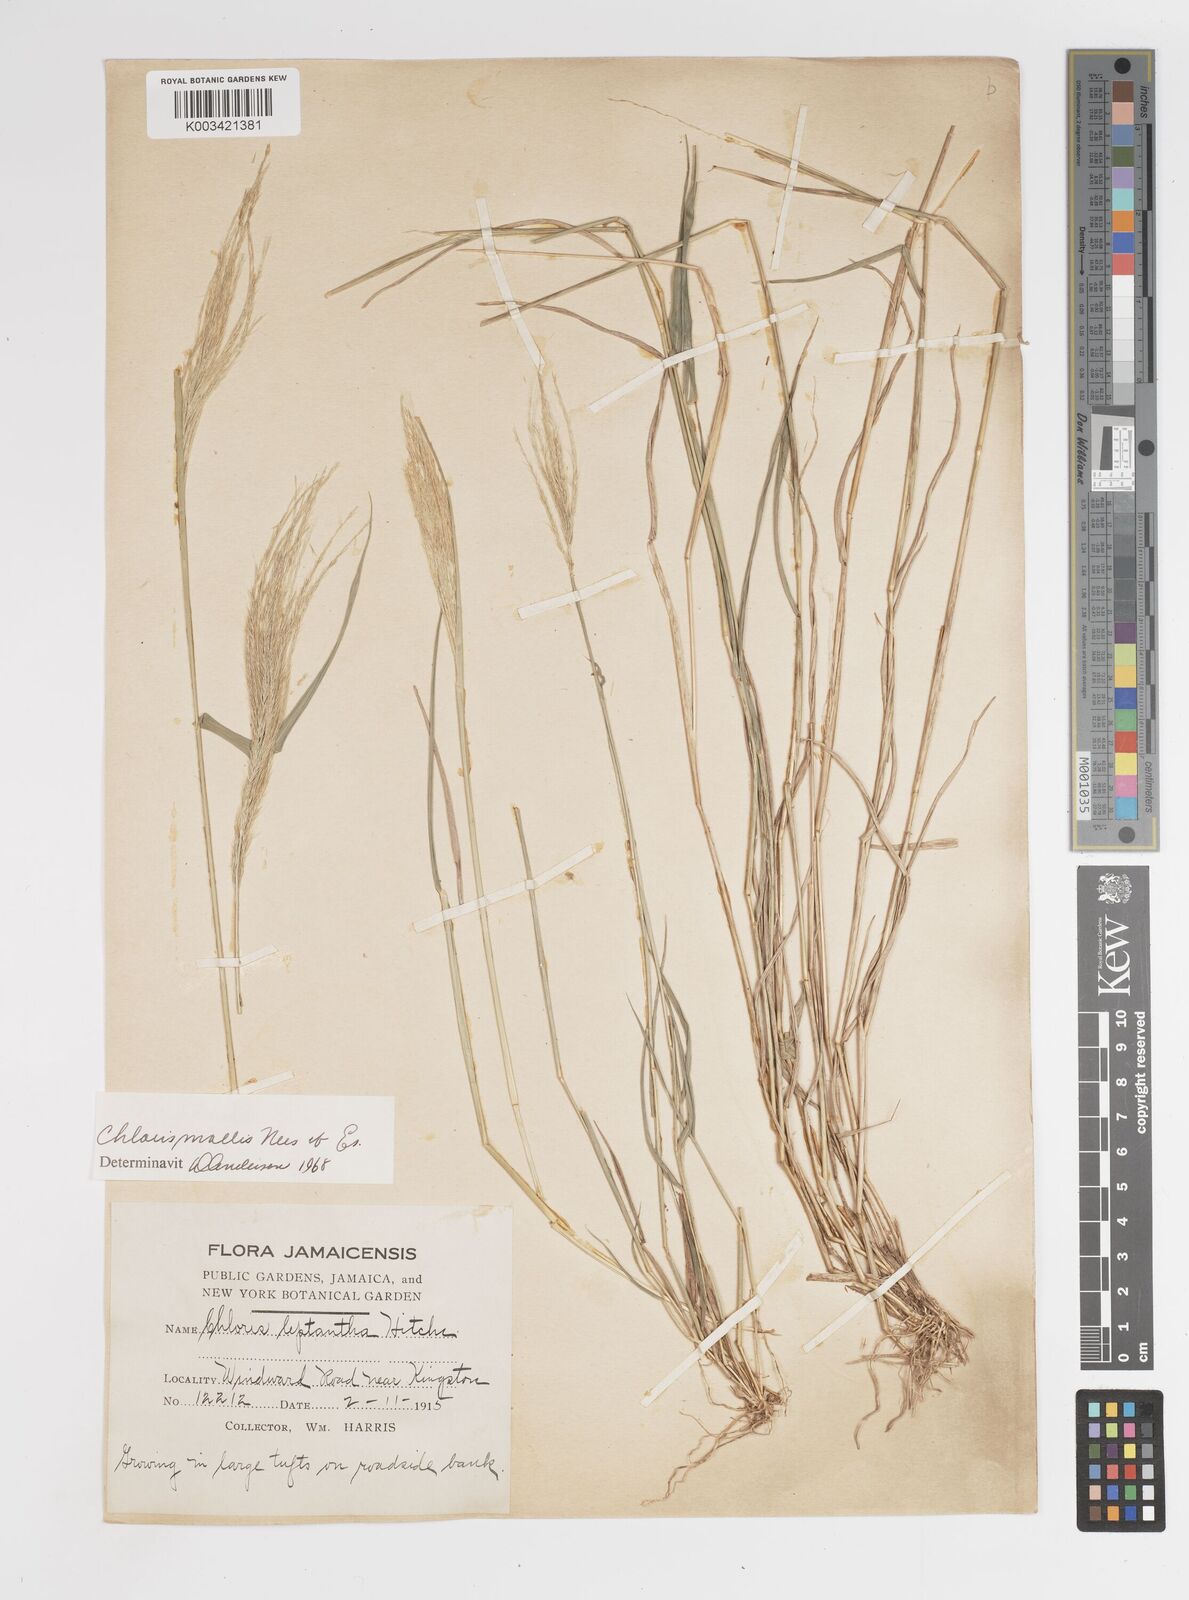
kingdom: Plantae
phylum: Tracheophyta
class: Liliopsida
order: Poales
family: Poaceae
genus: Leptochloa
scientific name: Leptochloa anisopoda
